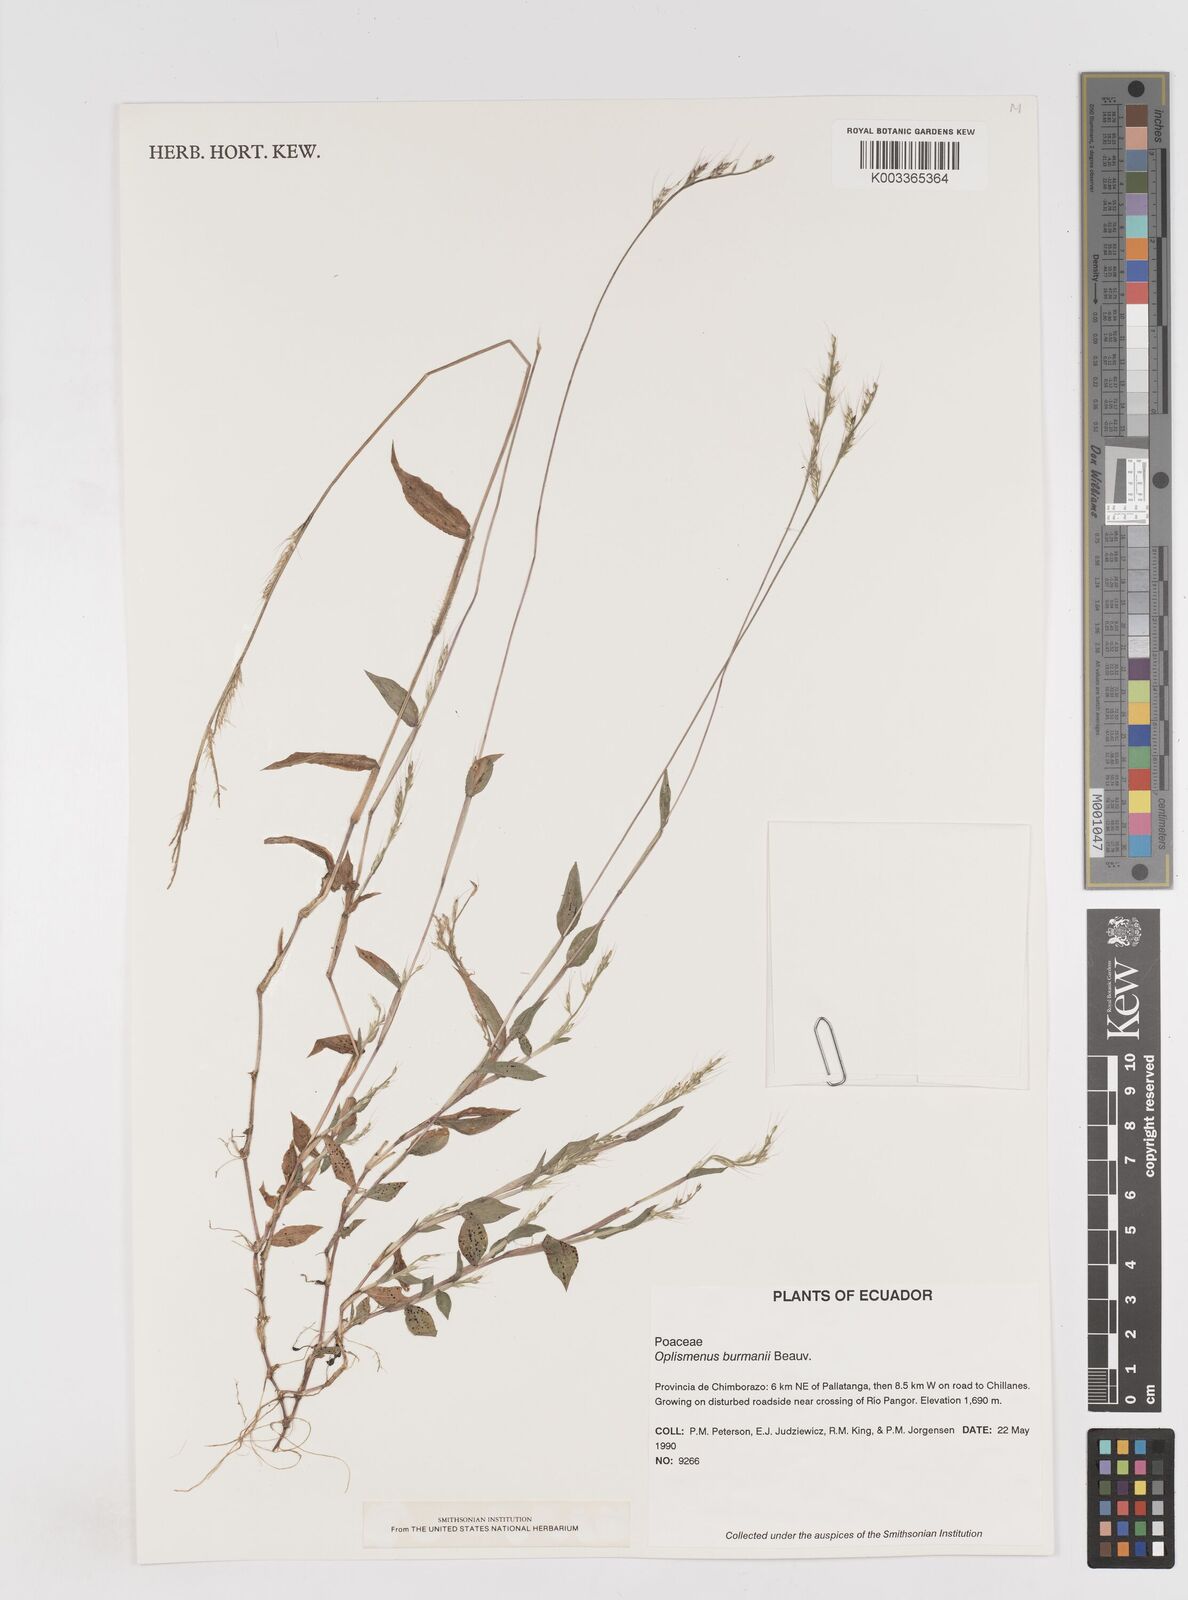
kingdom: Plantae
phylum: Tracheophyta
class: Liliopsida
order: Poales
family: Poaceae
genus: Oplismenus
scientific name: Oplismenus burmanni
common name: Burmann's basketgrass
